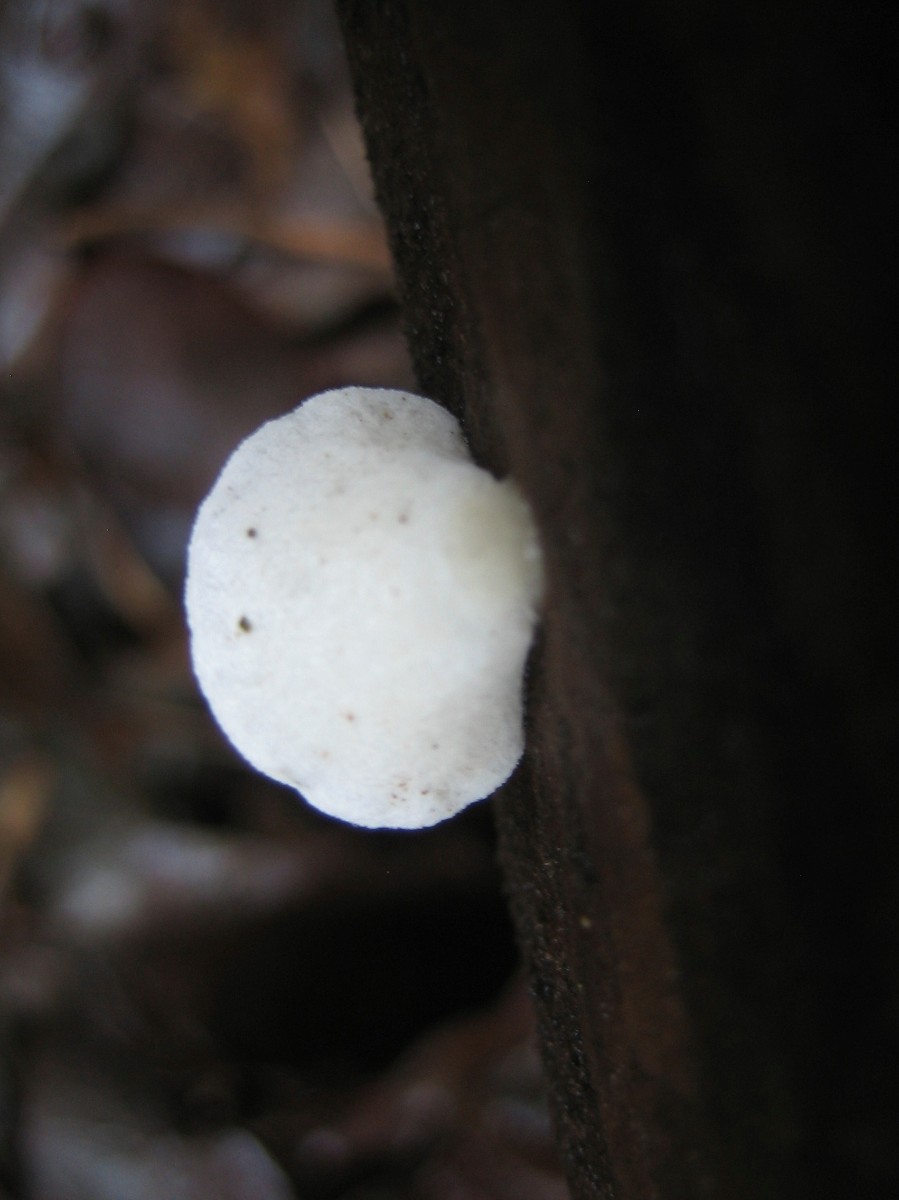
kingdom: Fungi
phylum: Basidiomycota
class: Agaricomycetes
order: Agaricales
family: Crepidotaceae
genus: Crepidotus
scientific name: Crepidotus
